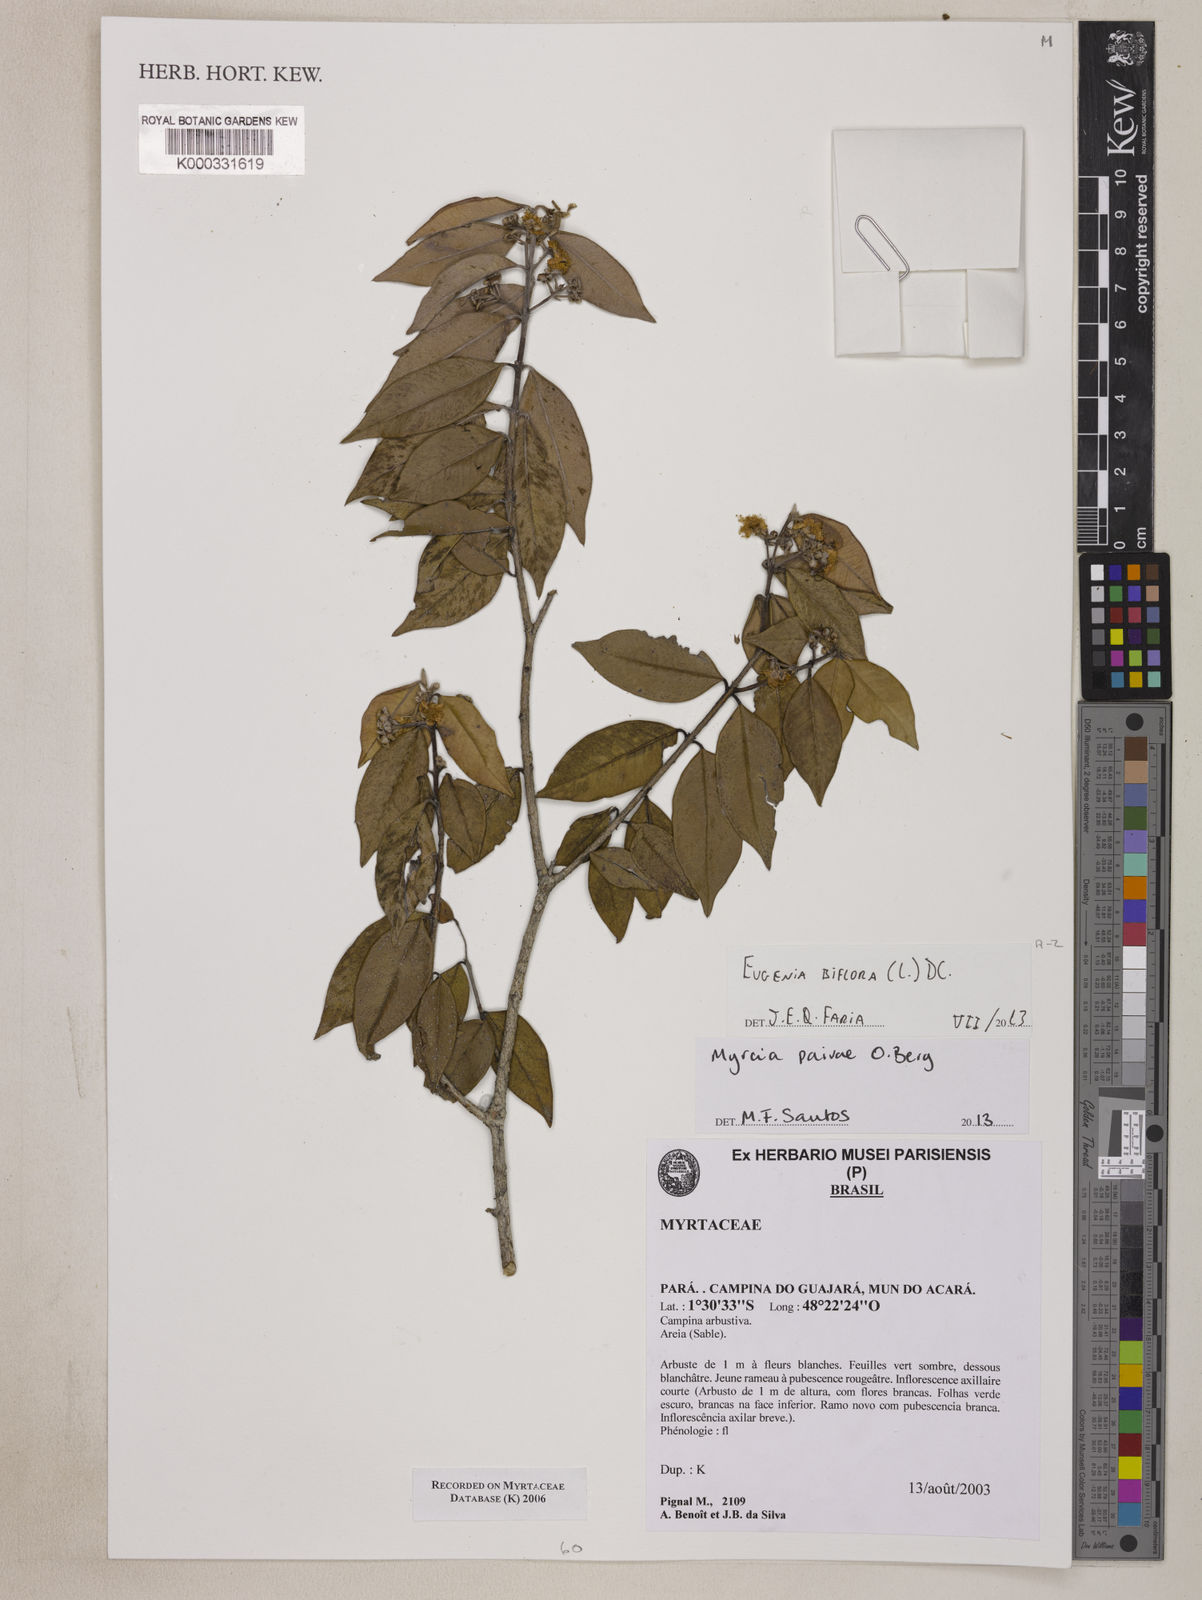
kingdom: Plantae
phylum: Tracheophyta
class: Magnoliopsida
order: Myrtales
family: Myrtaceae
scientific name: Myrtaceae
